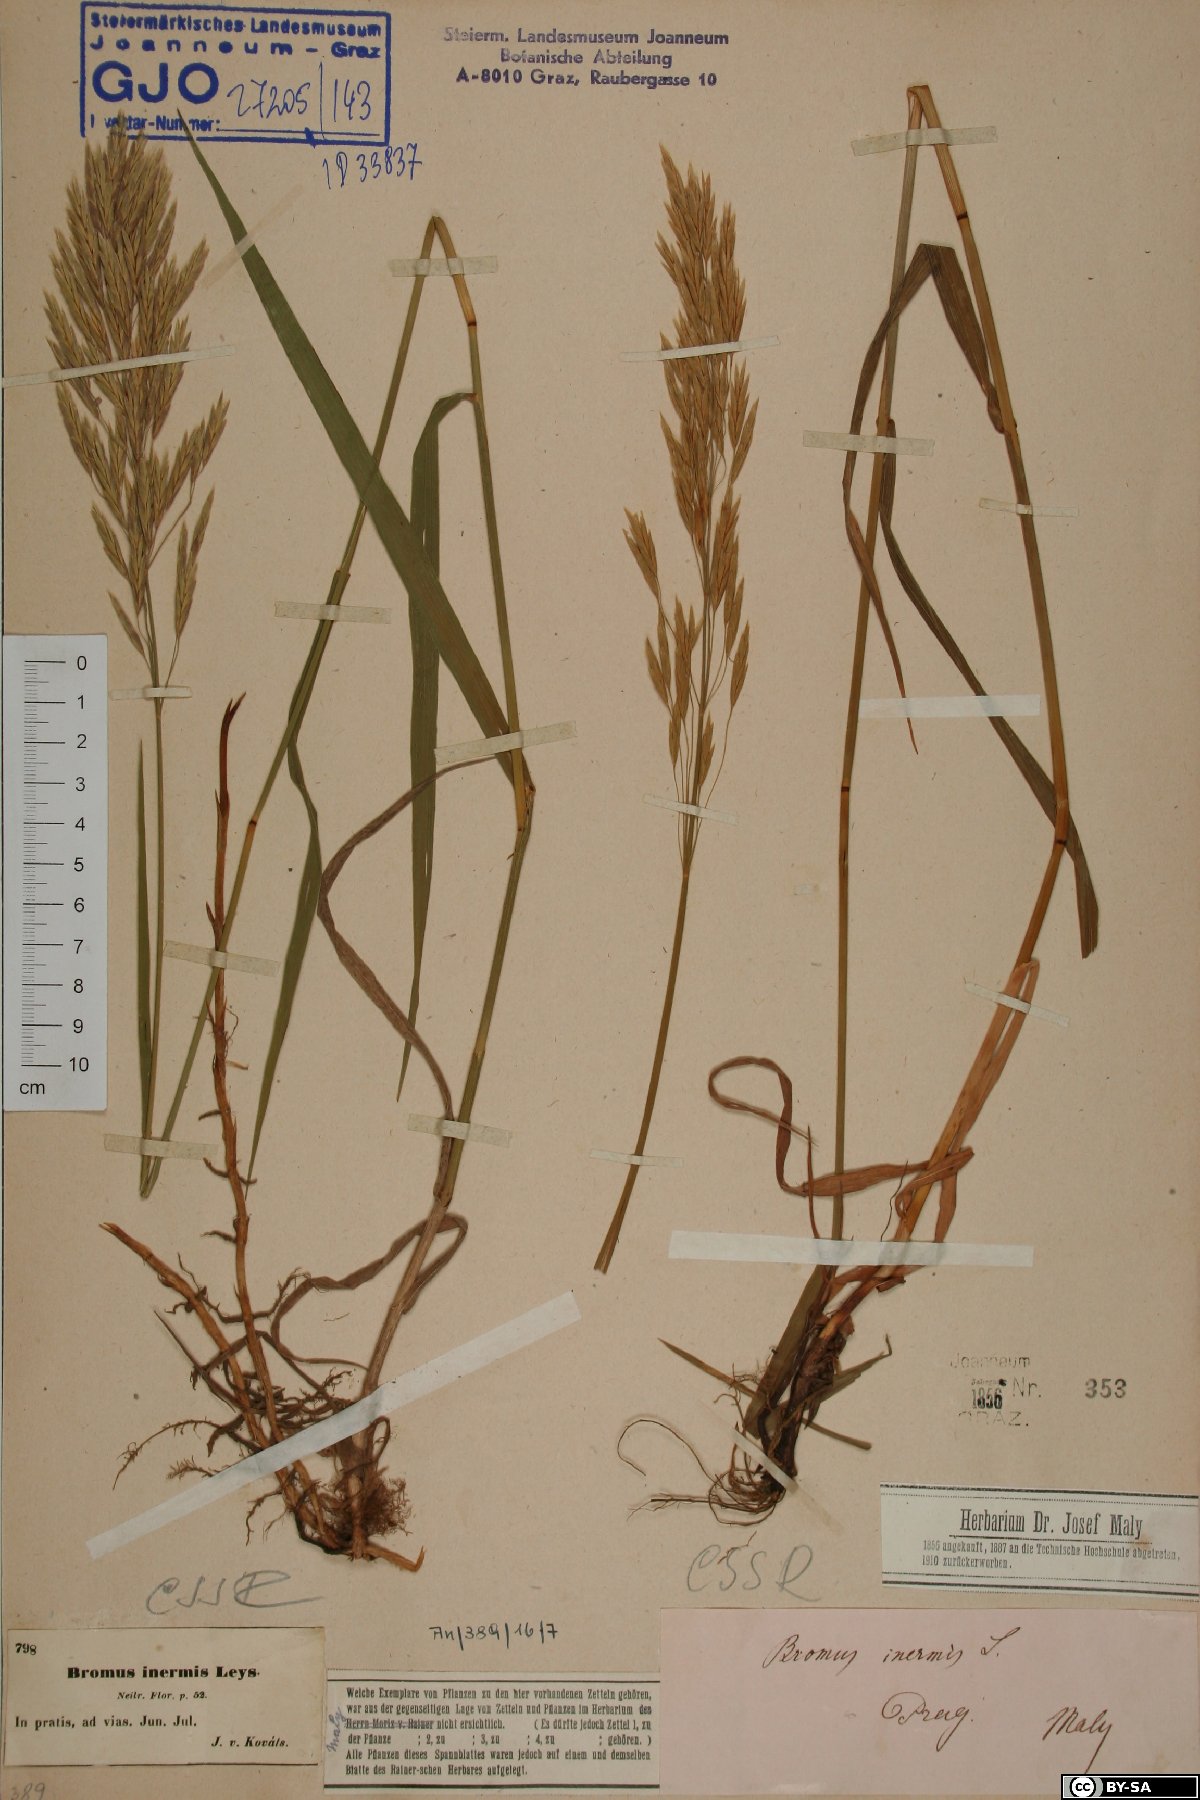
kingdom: Plantae
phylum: Tracheophyta
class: Liliopsida
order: Poales
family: Poaceae
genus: Bromus
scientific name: Bromus inermis
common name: Smooth brome
